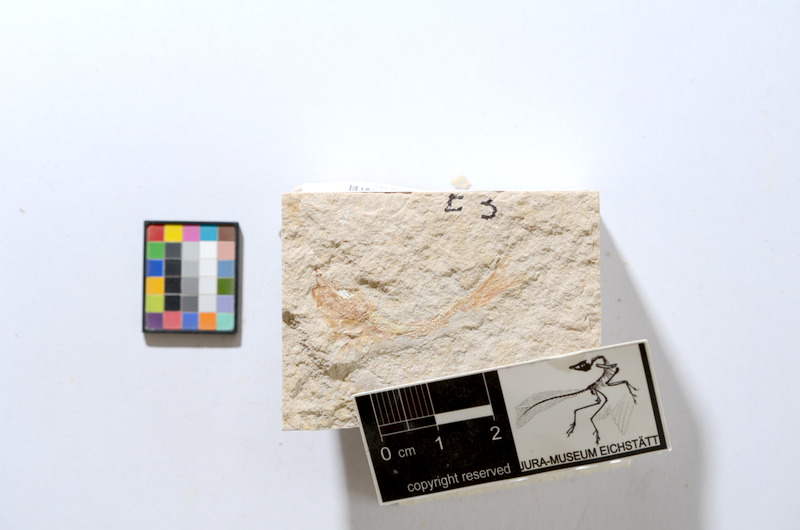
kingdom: Animalia
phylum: Chordata
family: Ascalaboidae
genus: Tharsis
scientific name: Tharsis dubius
